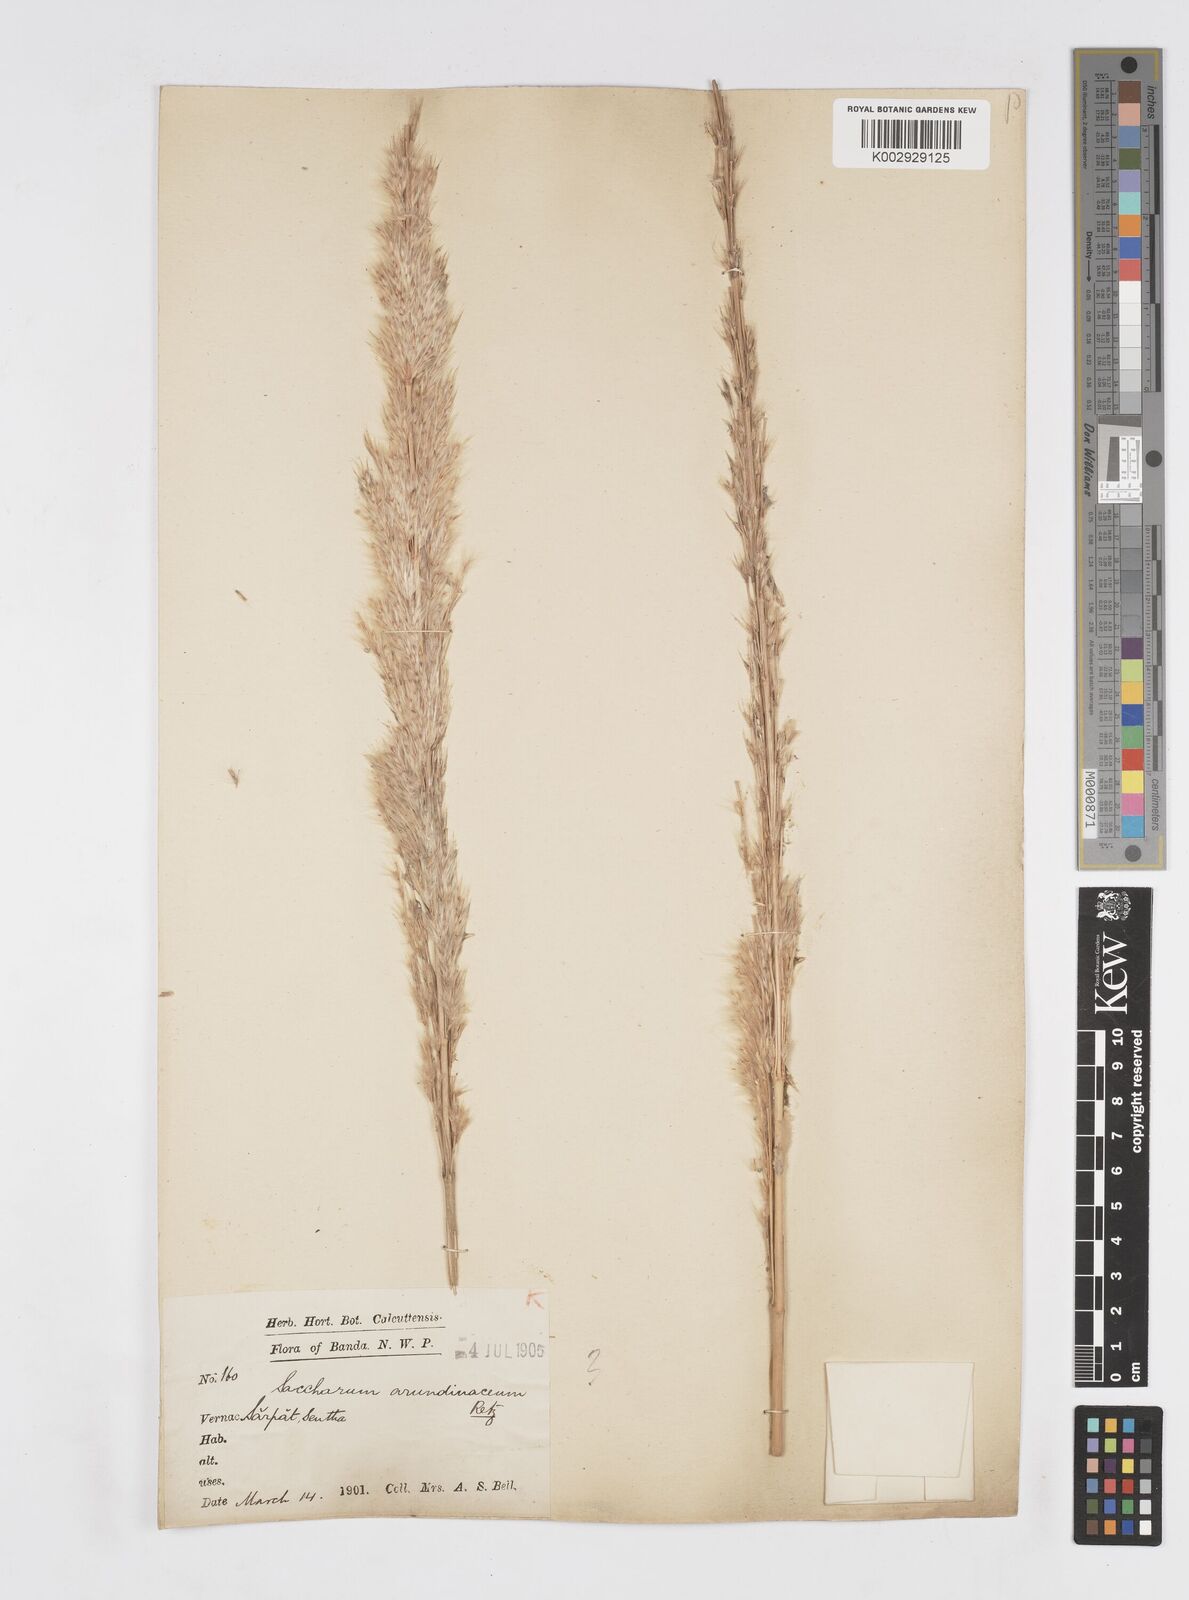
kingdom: Plantae
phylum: Tracheophyta
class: Liliopsida
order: Poales
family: Poaceae
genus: Tripidium
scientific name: Tripidium bengalense
